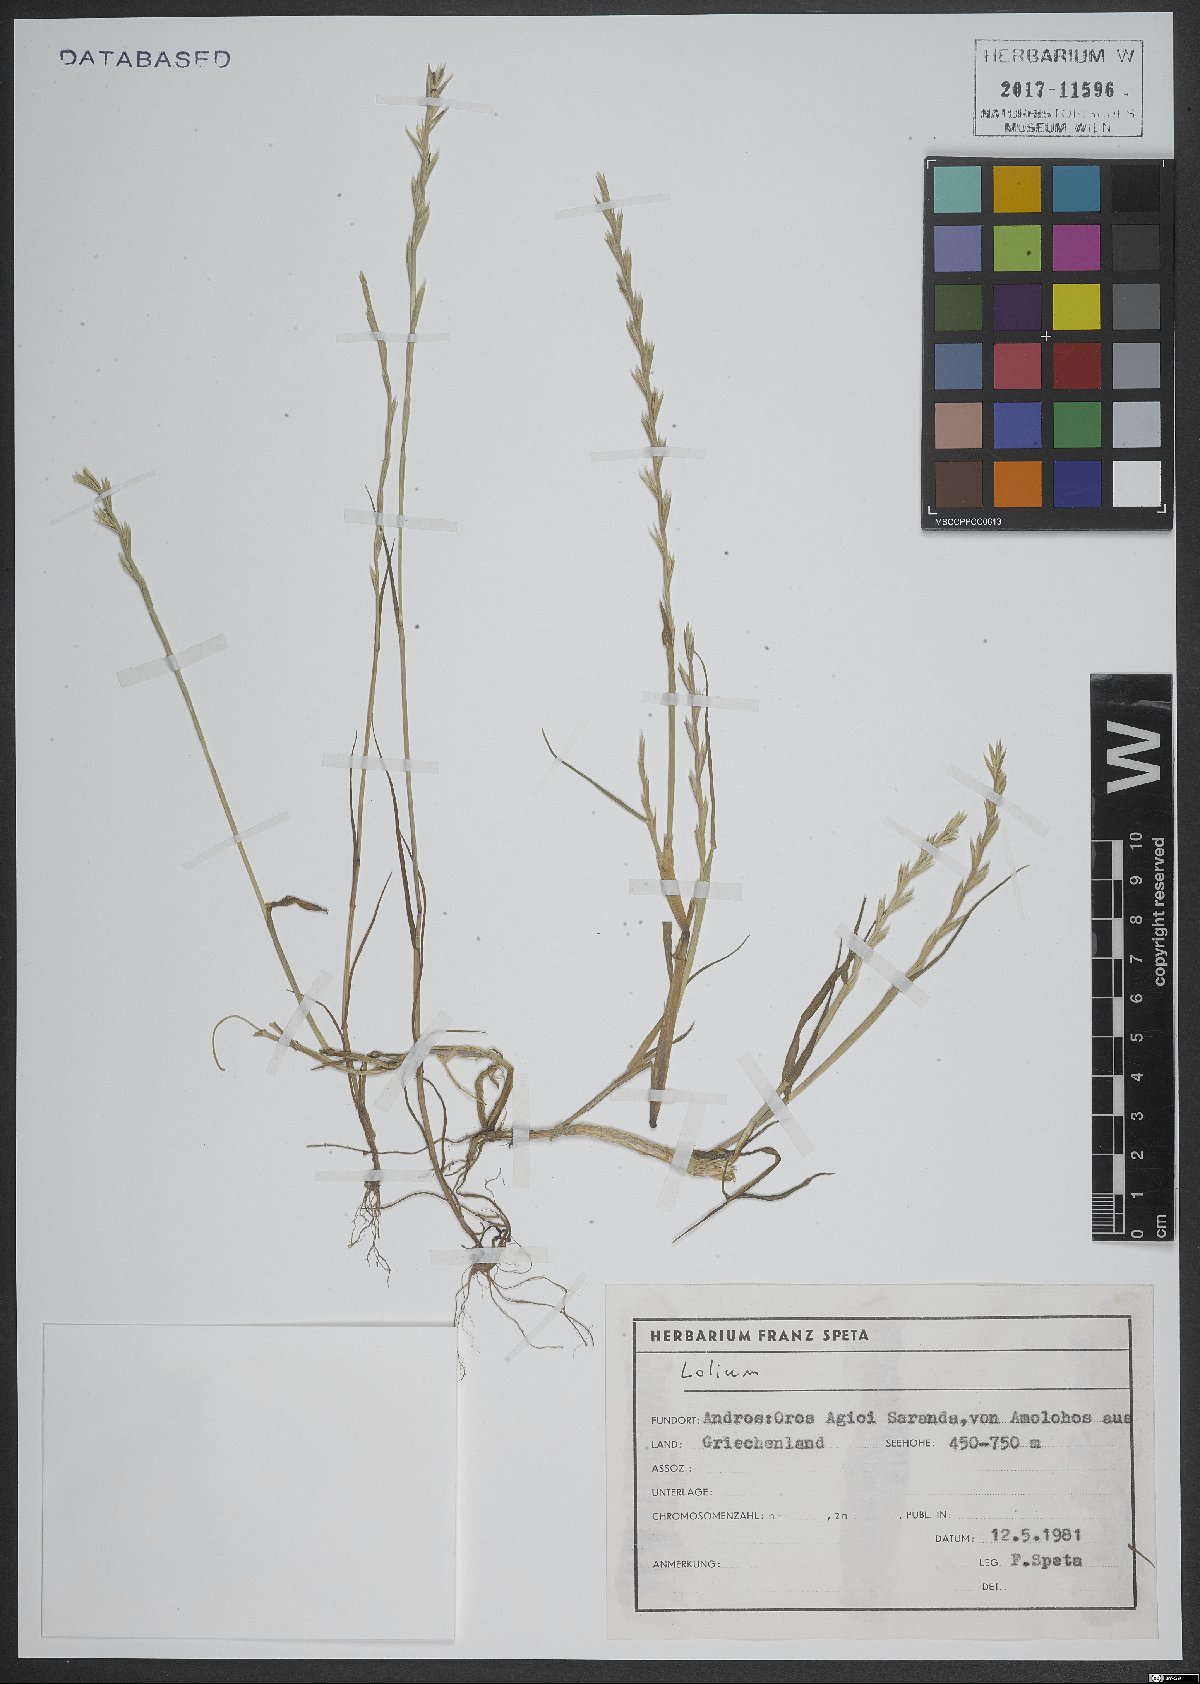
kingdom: Plantae
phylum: Tracheophyta
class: Liliopsida
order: Poales
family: Poaceae
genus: Lolium
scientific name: Lolium
